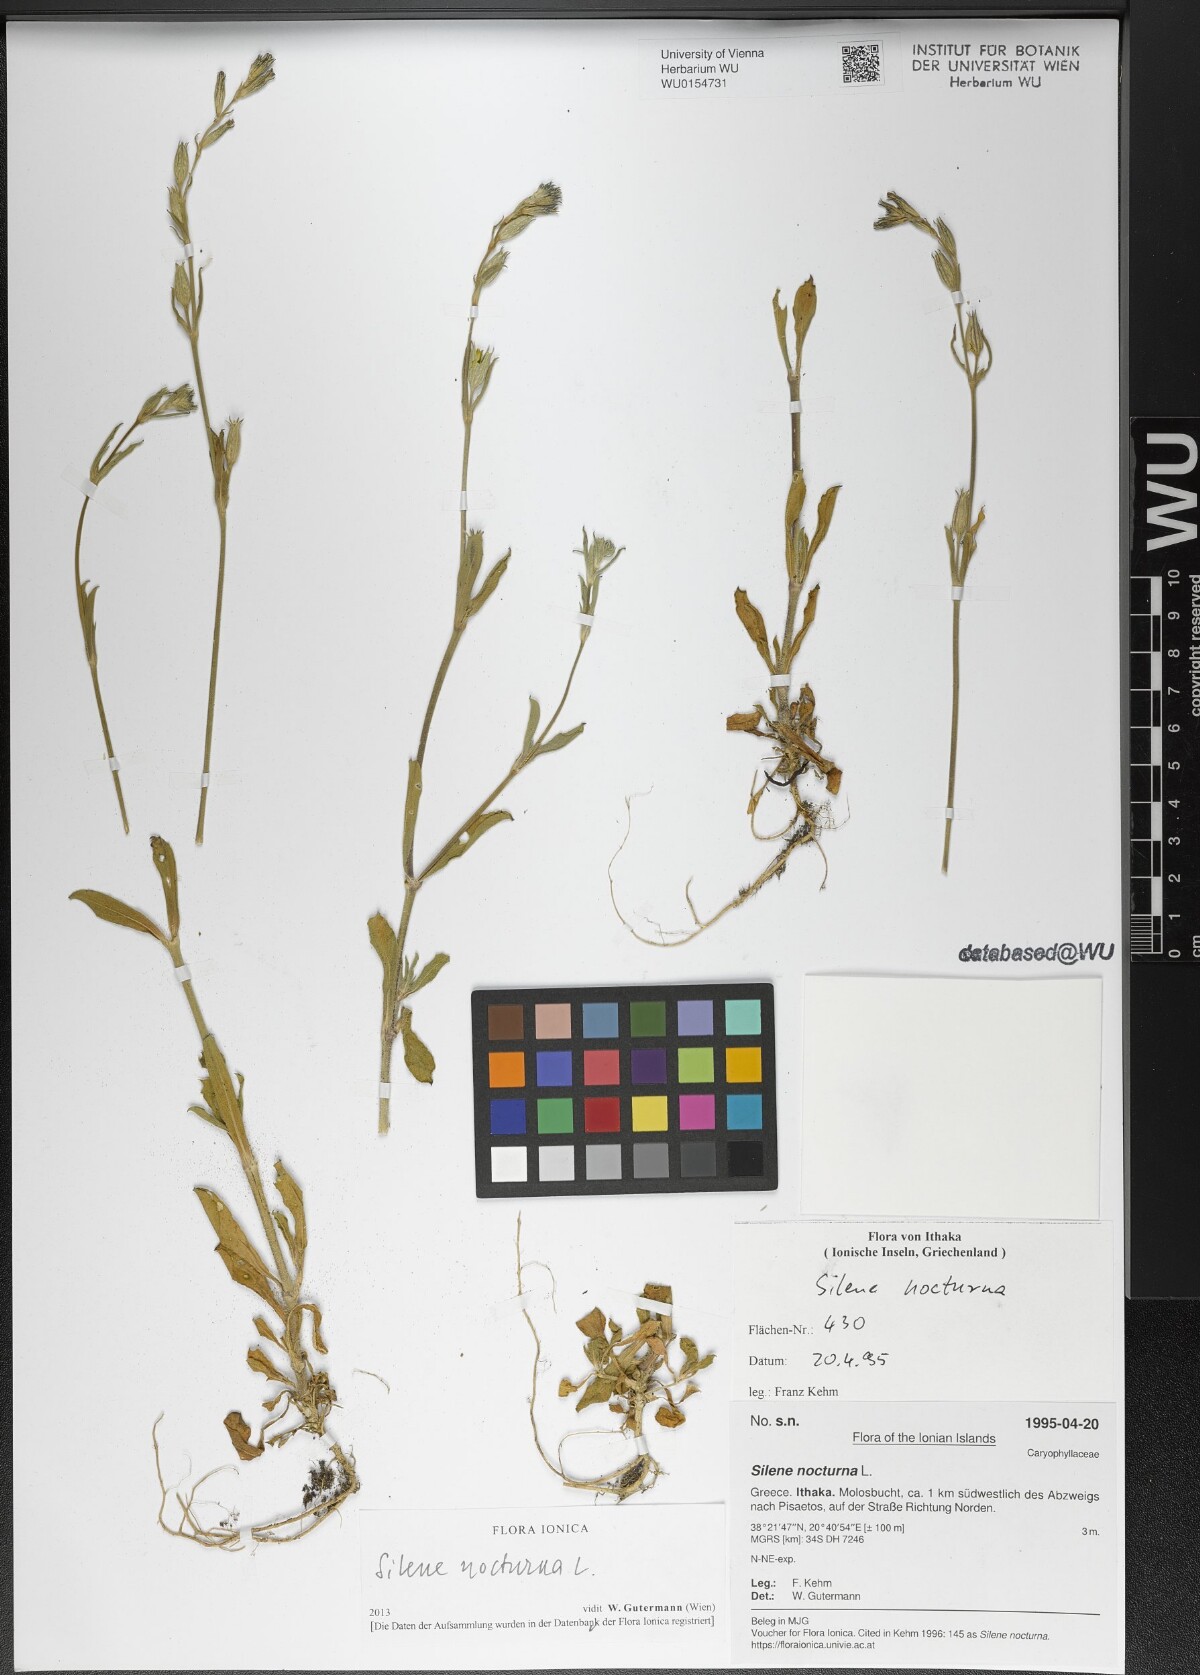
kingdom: Plantae
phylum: Tracheophyta
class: Magnoliopsida
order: Caryophyllales
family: Caryophyllaceae
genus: Silene
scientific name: Silene nocturna
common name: Mediterranean catchfly
